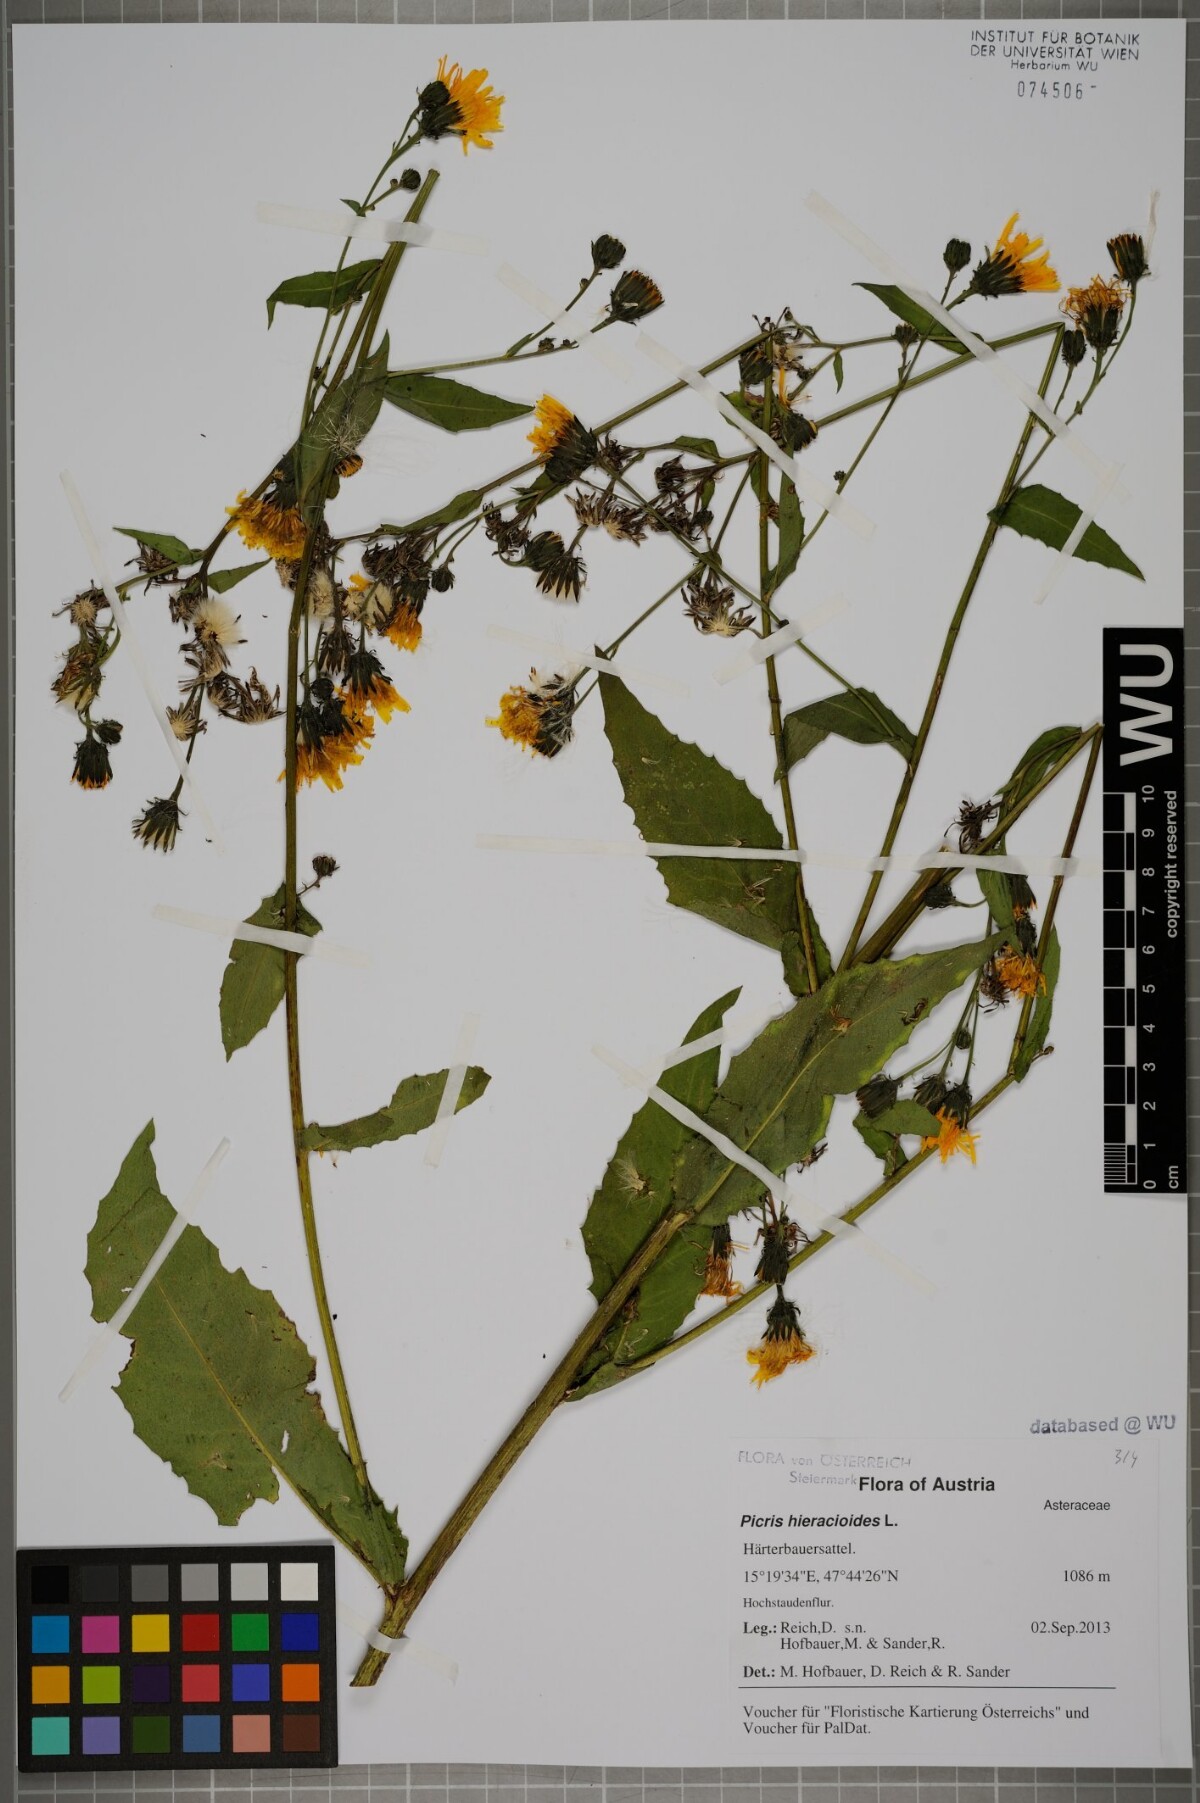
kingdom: Plantae
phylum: Tracheophyta
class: Magnoliopsida
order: Asterales
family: Asteraceae
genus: Picris
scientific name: Picris hieracioides
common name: Hawkweed oxtongue
